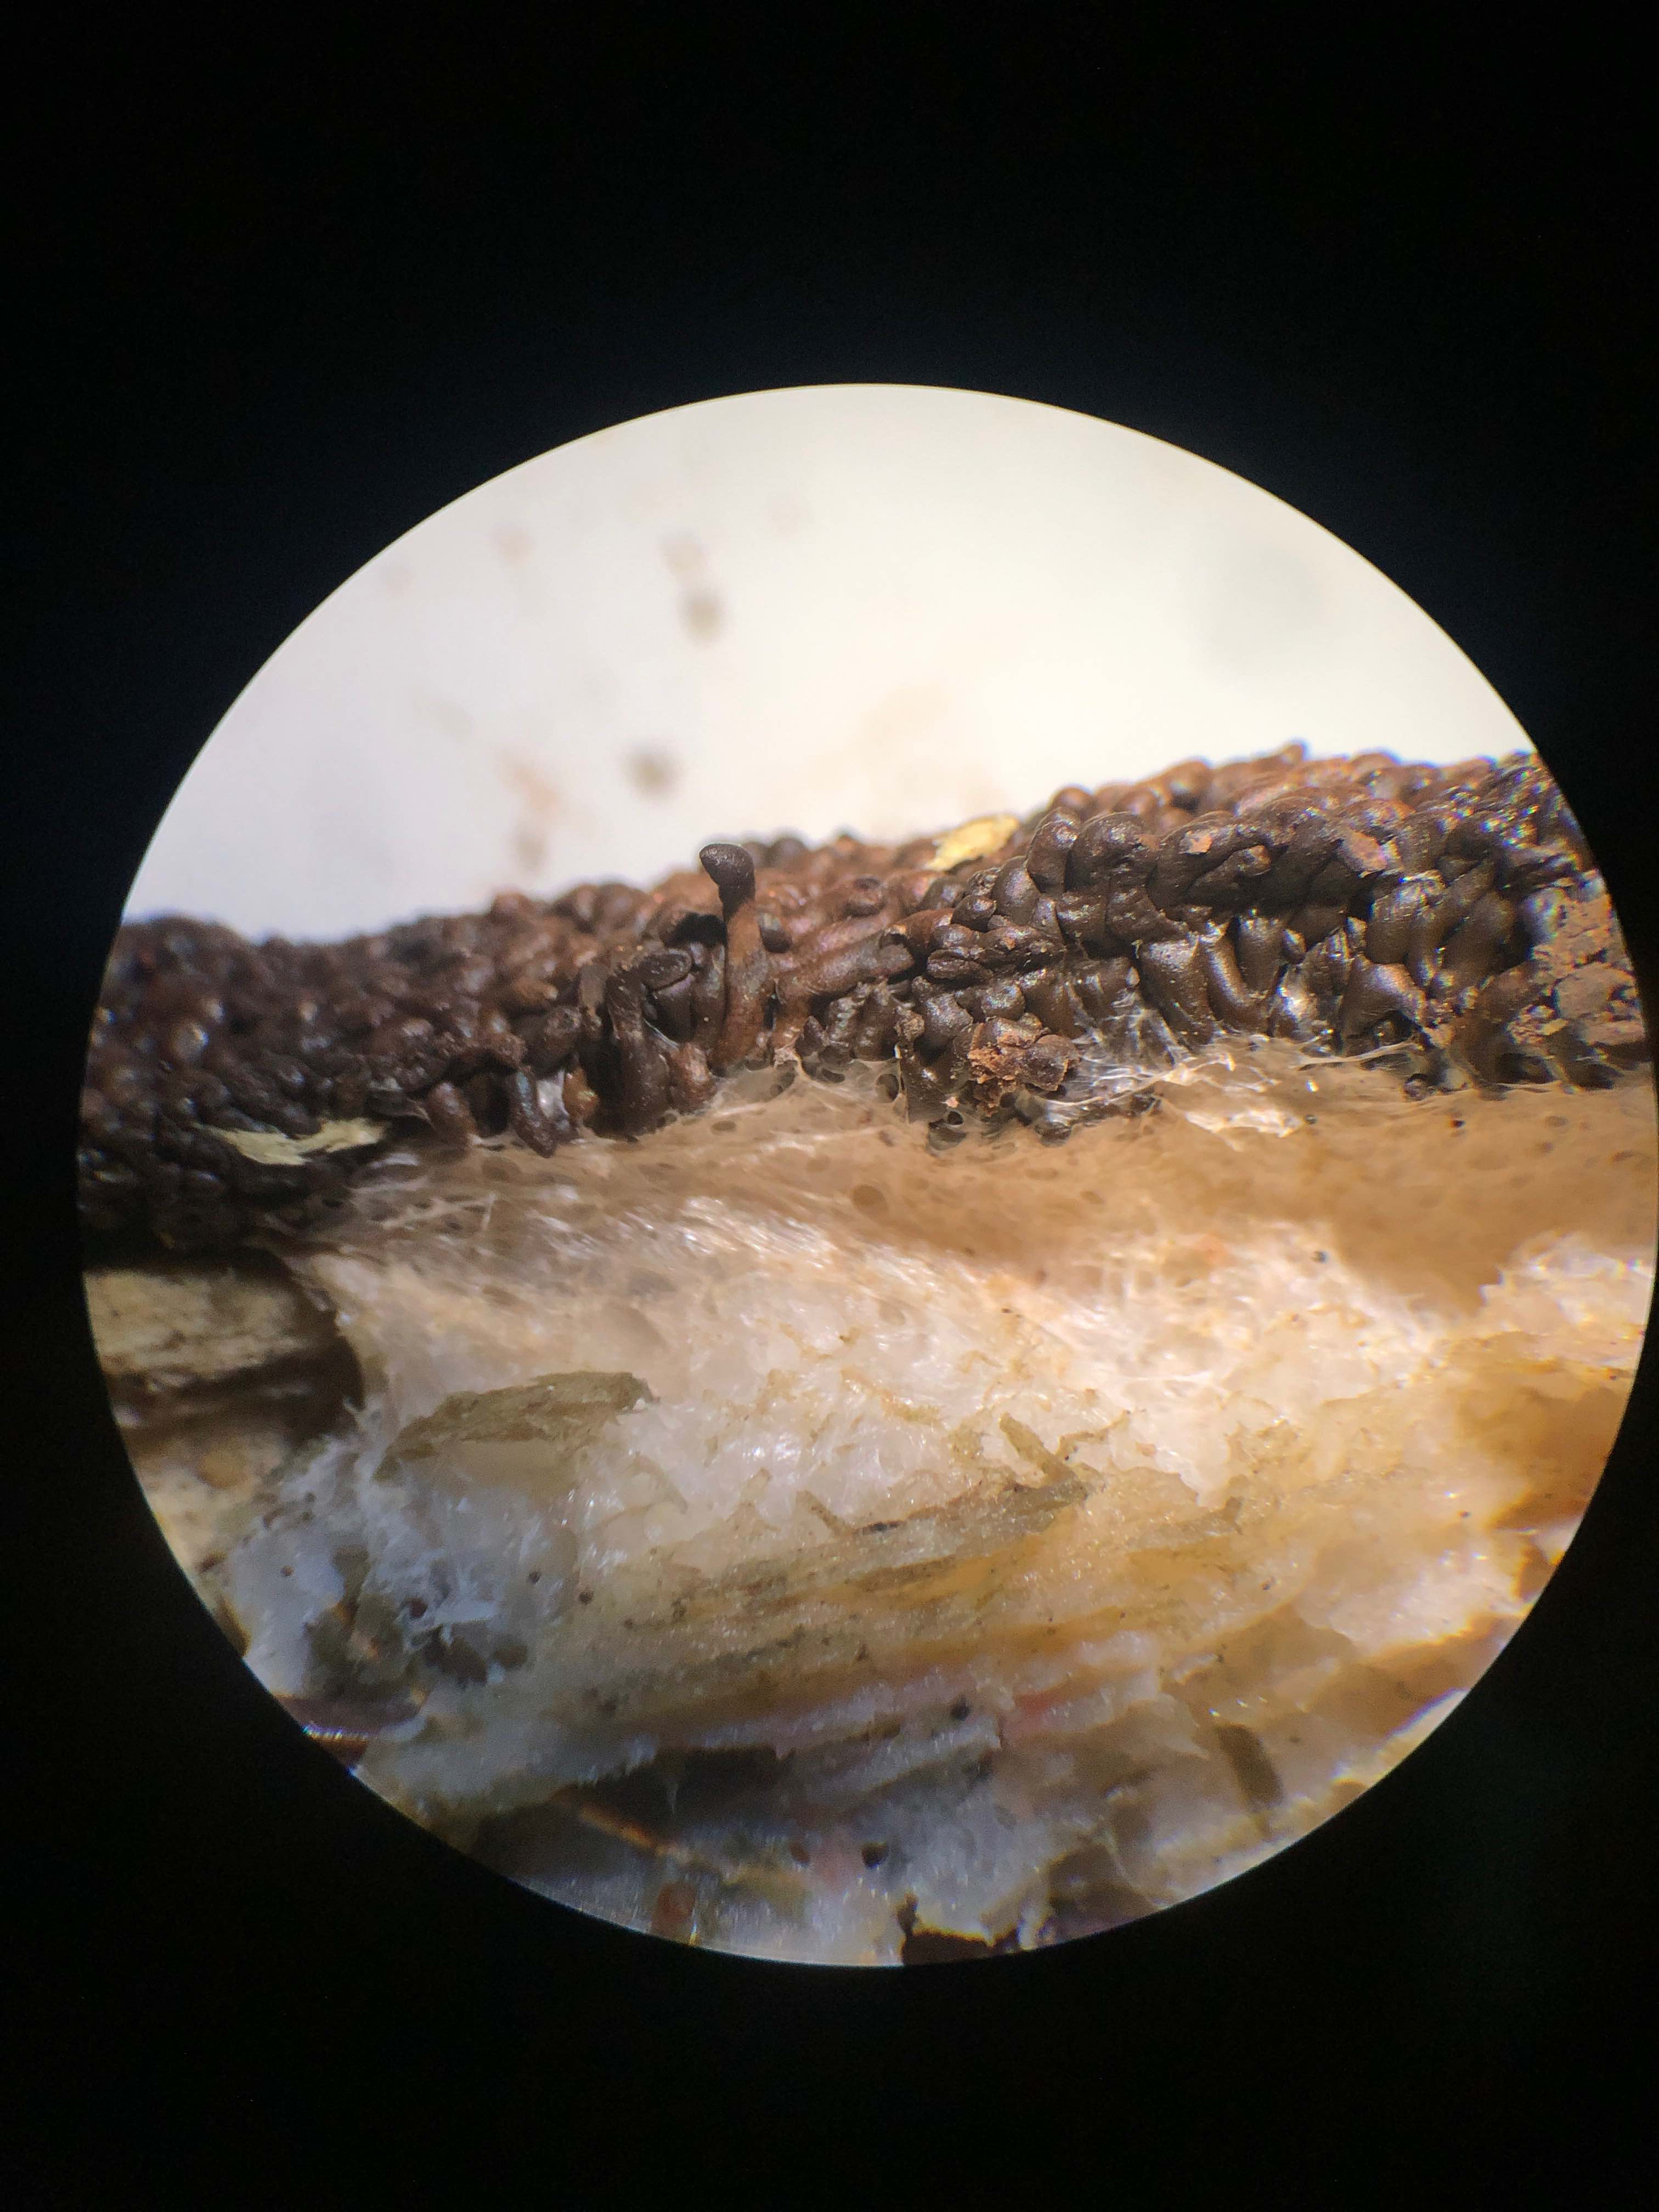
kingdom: Protozoa
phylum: Mycetozoa
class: Myxomycetes
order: Cribrariales
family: Tubiferaceae
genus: Tubifera
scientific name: Tubifera ferruginosa
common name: kanel-støvrør
